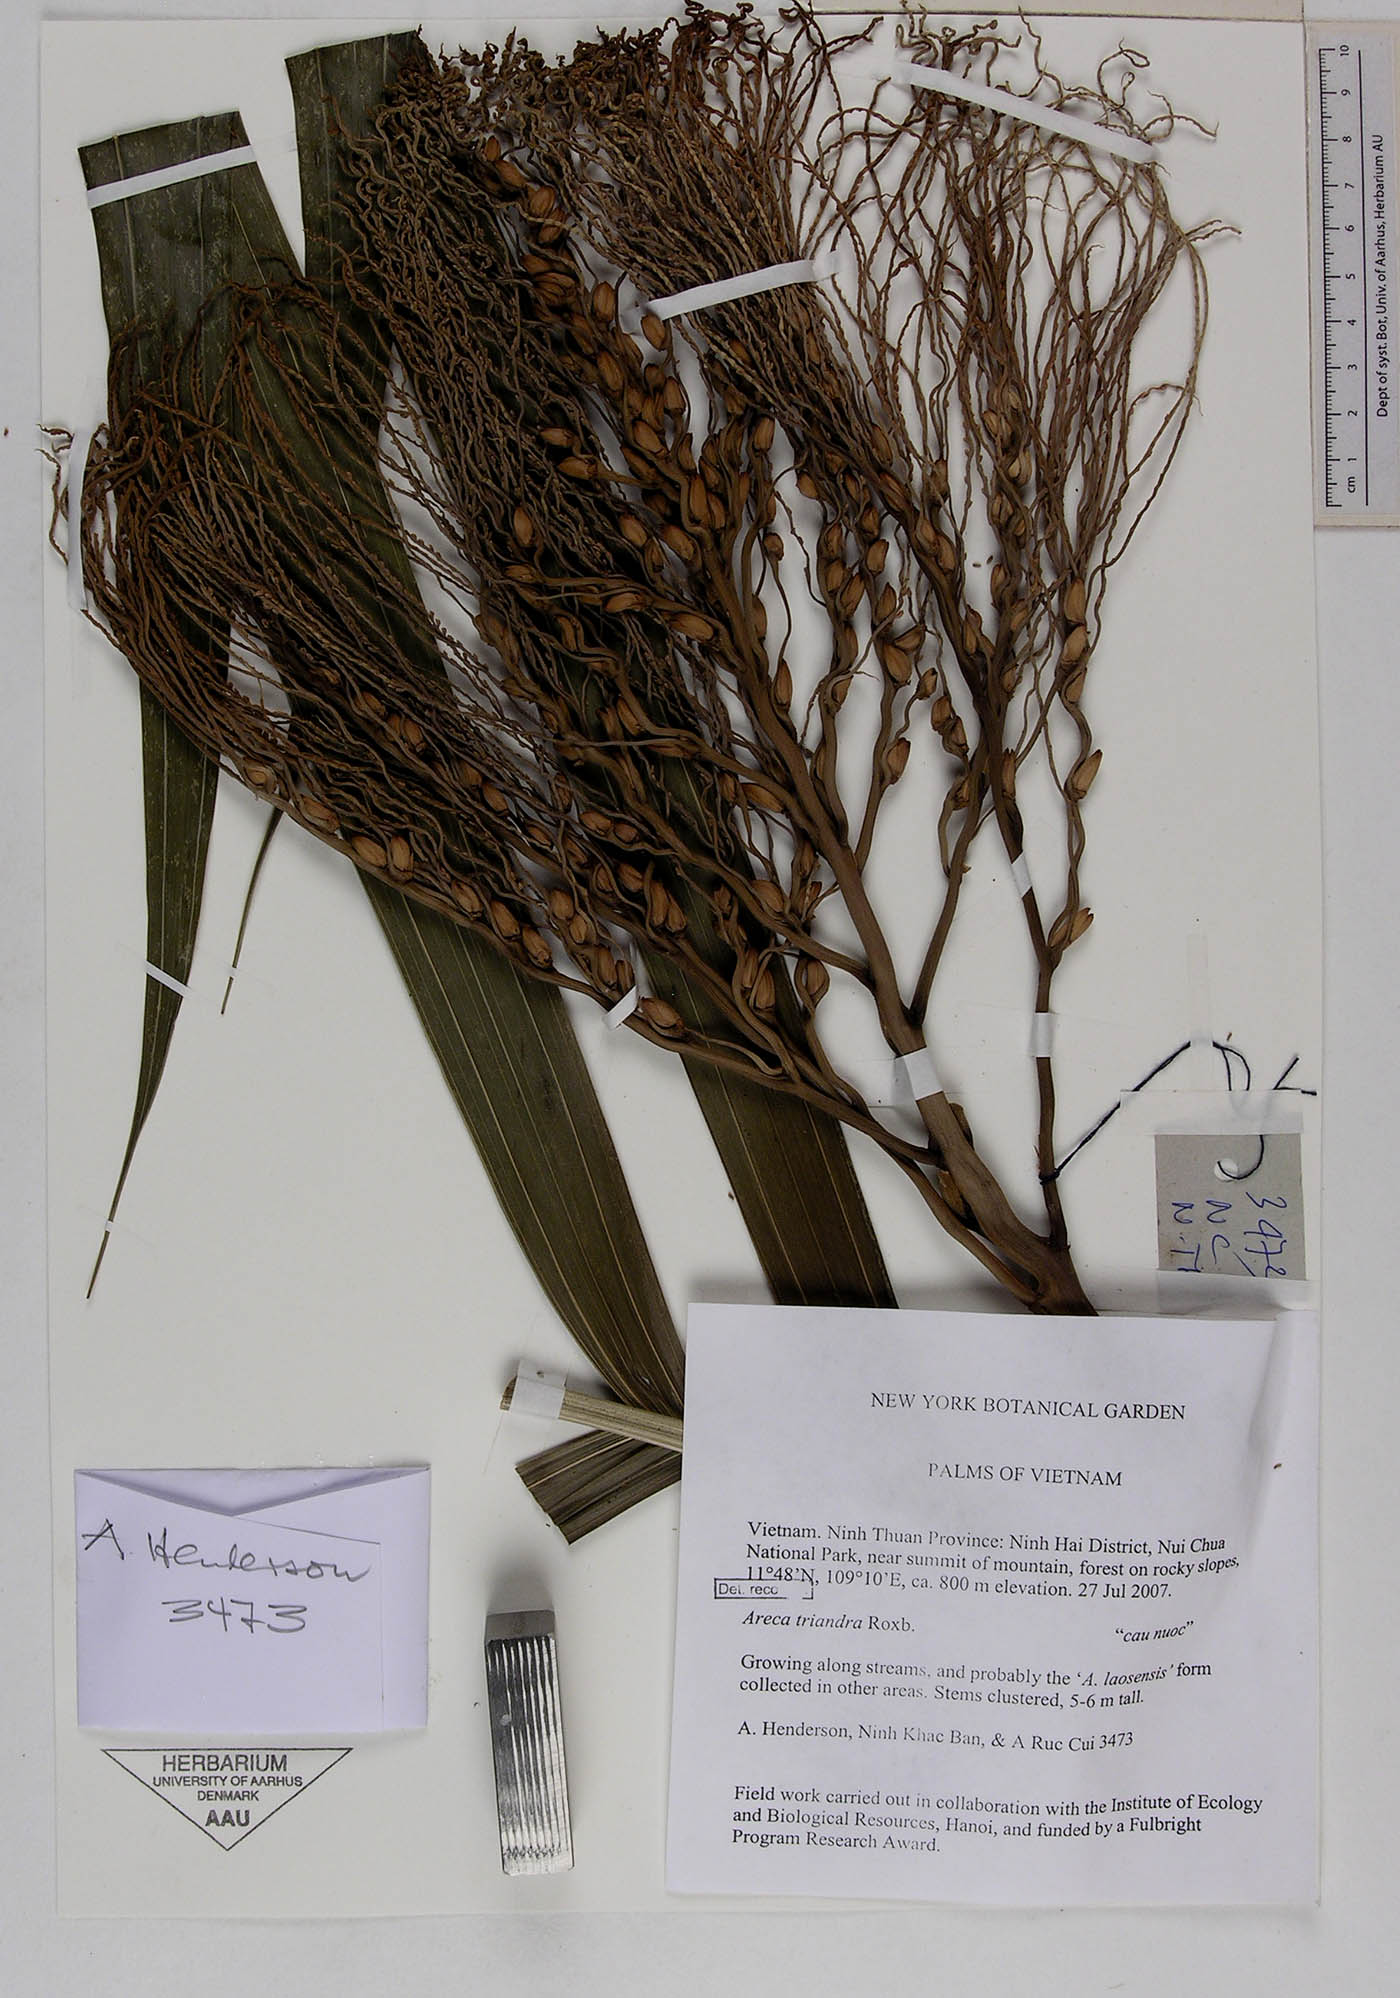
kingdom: Plantae
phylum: Tracheophyta
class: Liliopsida
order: Arecales
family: Arecaceae
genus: Areca
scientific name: Areca triandra
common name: Australian areca palm
